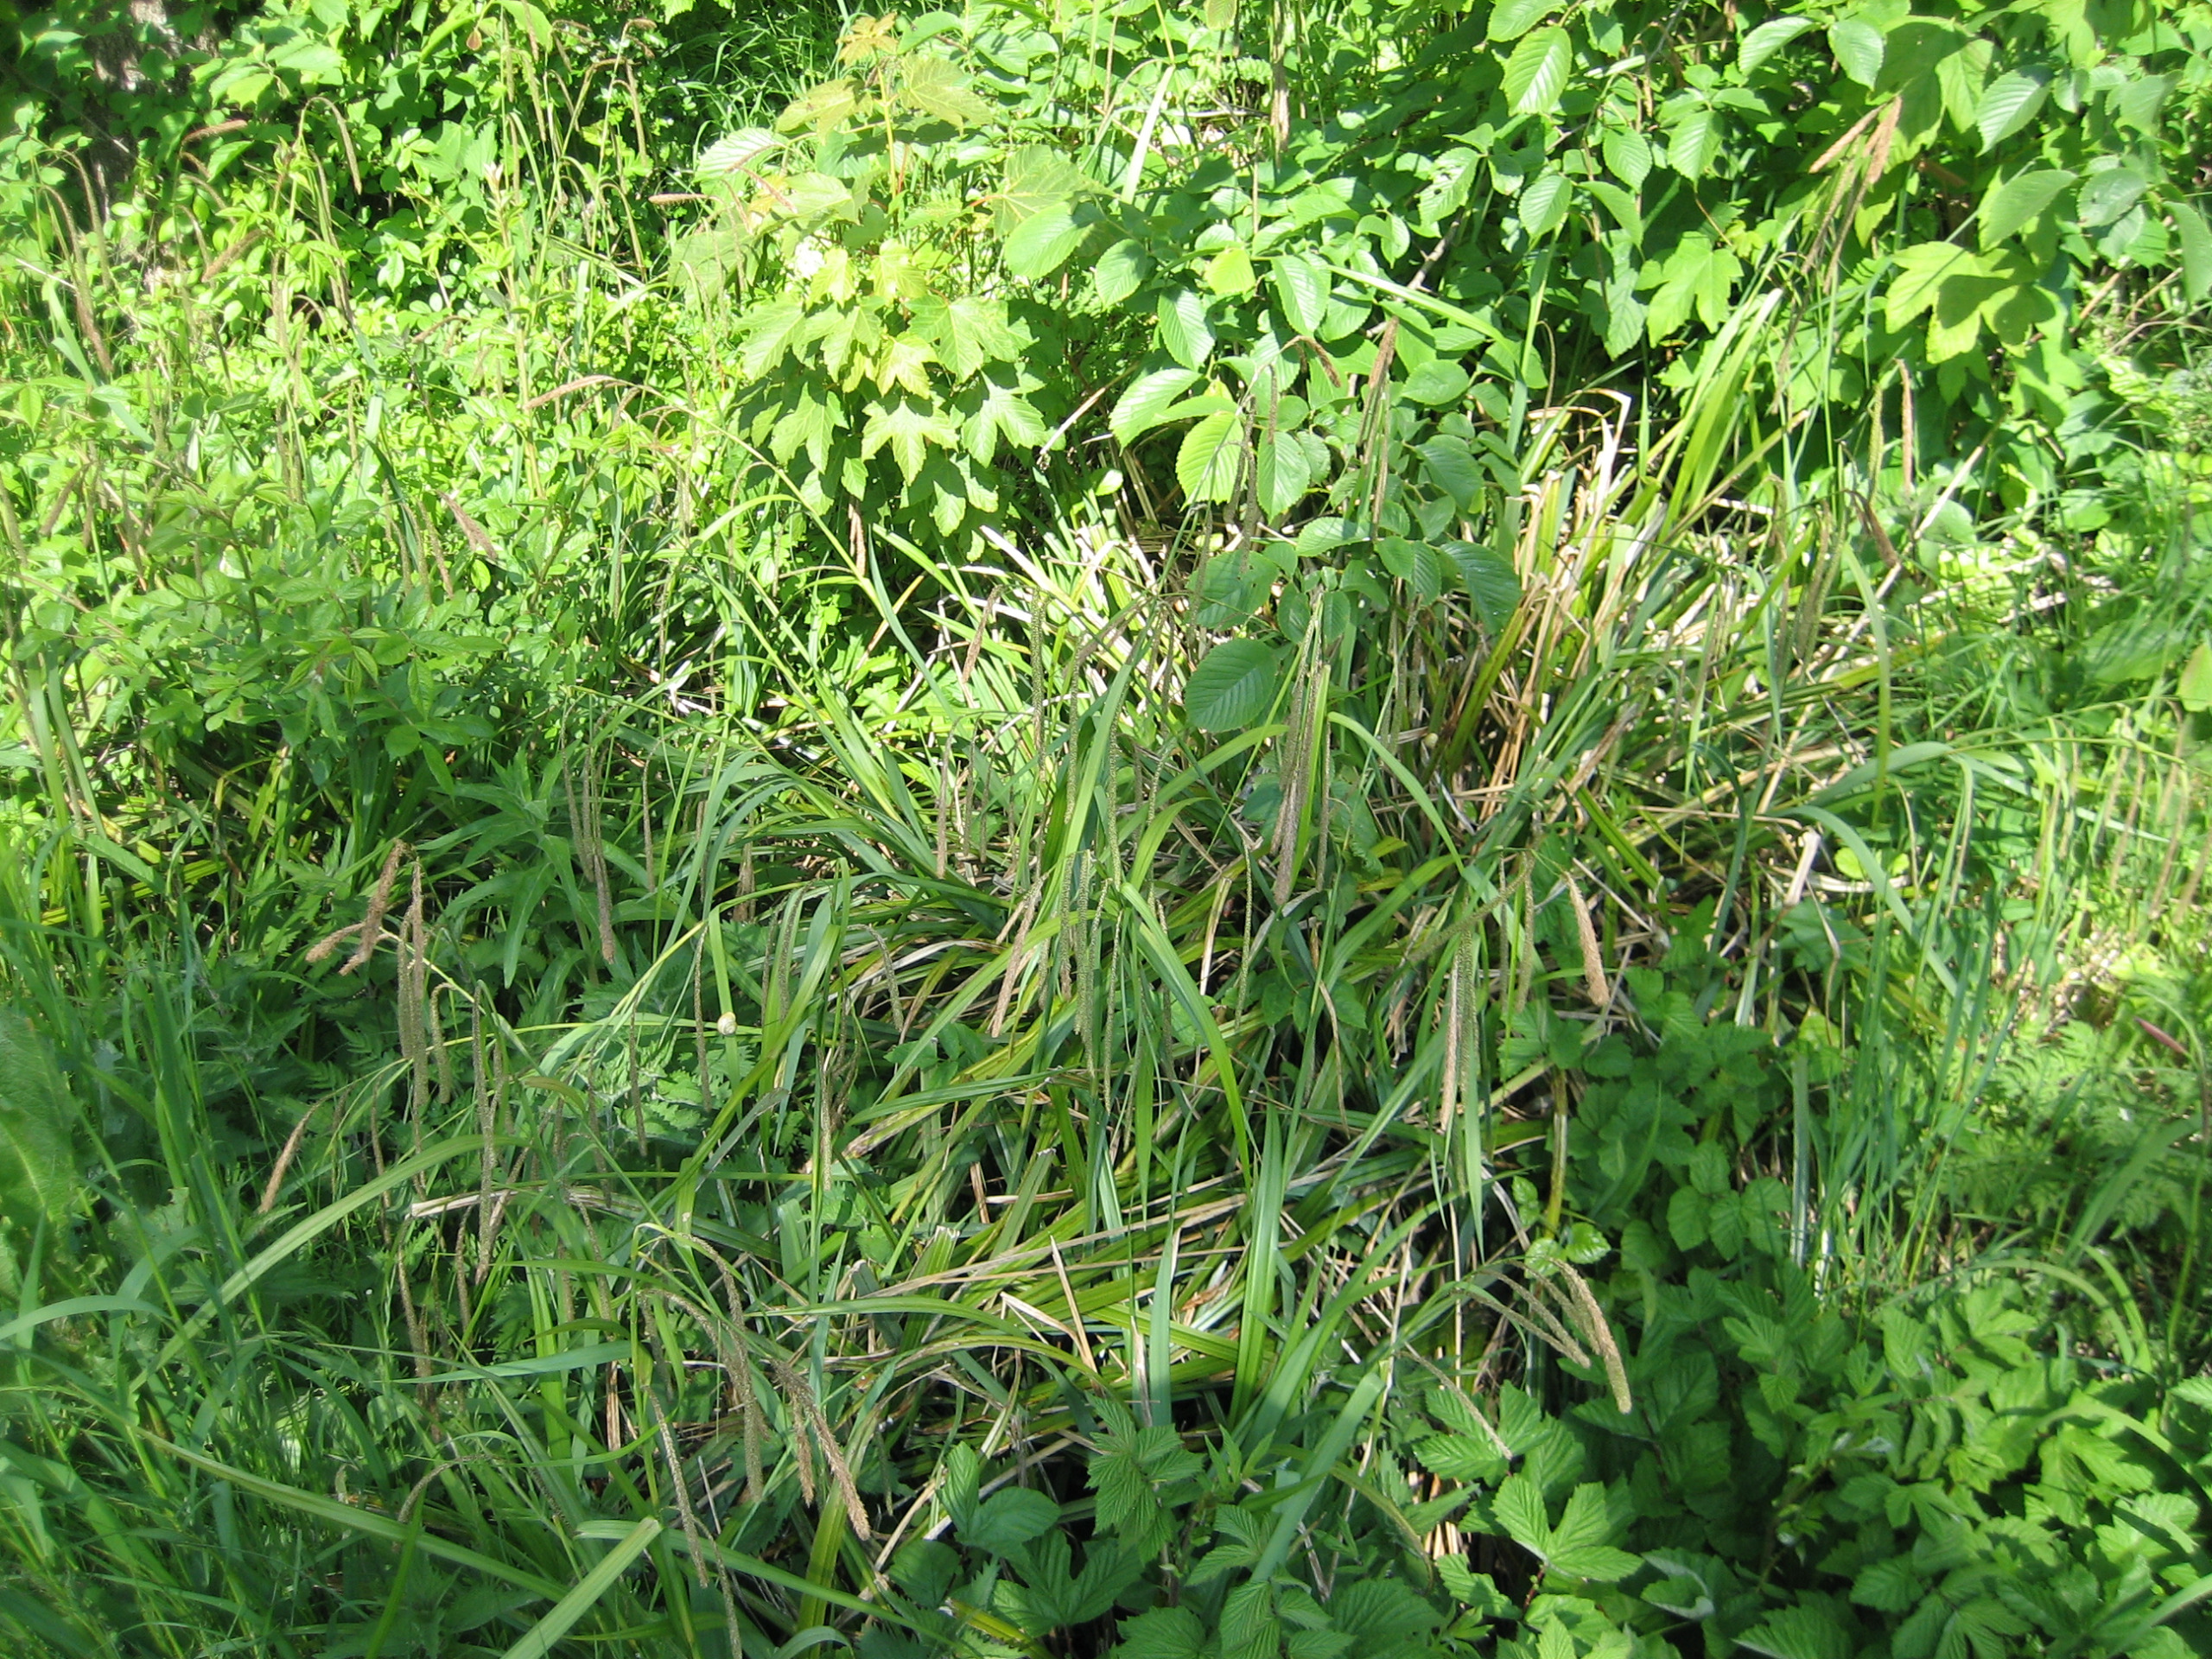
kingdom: Plantae
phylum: Tracheophyta
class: Liliopsida
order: Poales
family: Cyperaceae
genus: Carex
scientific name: Carex pendula
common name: Kæmpe-star
